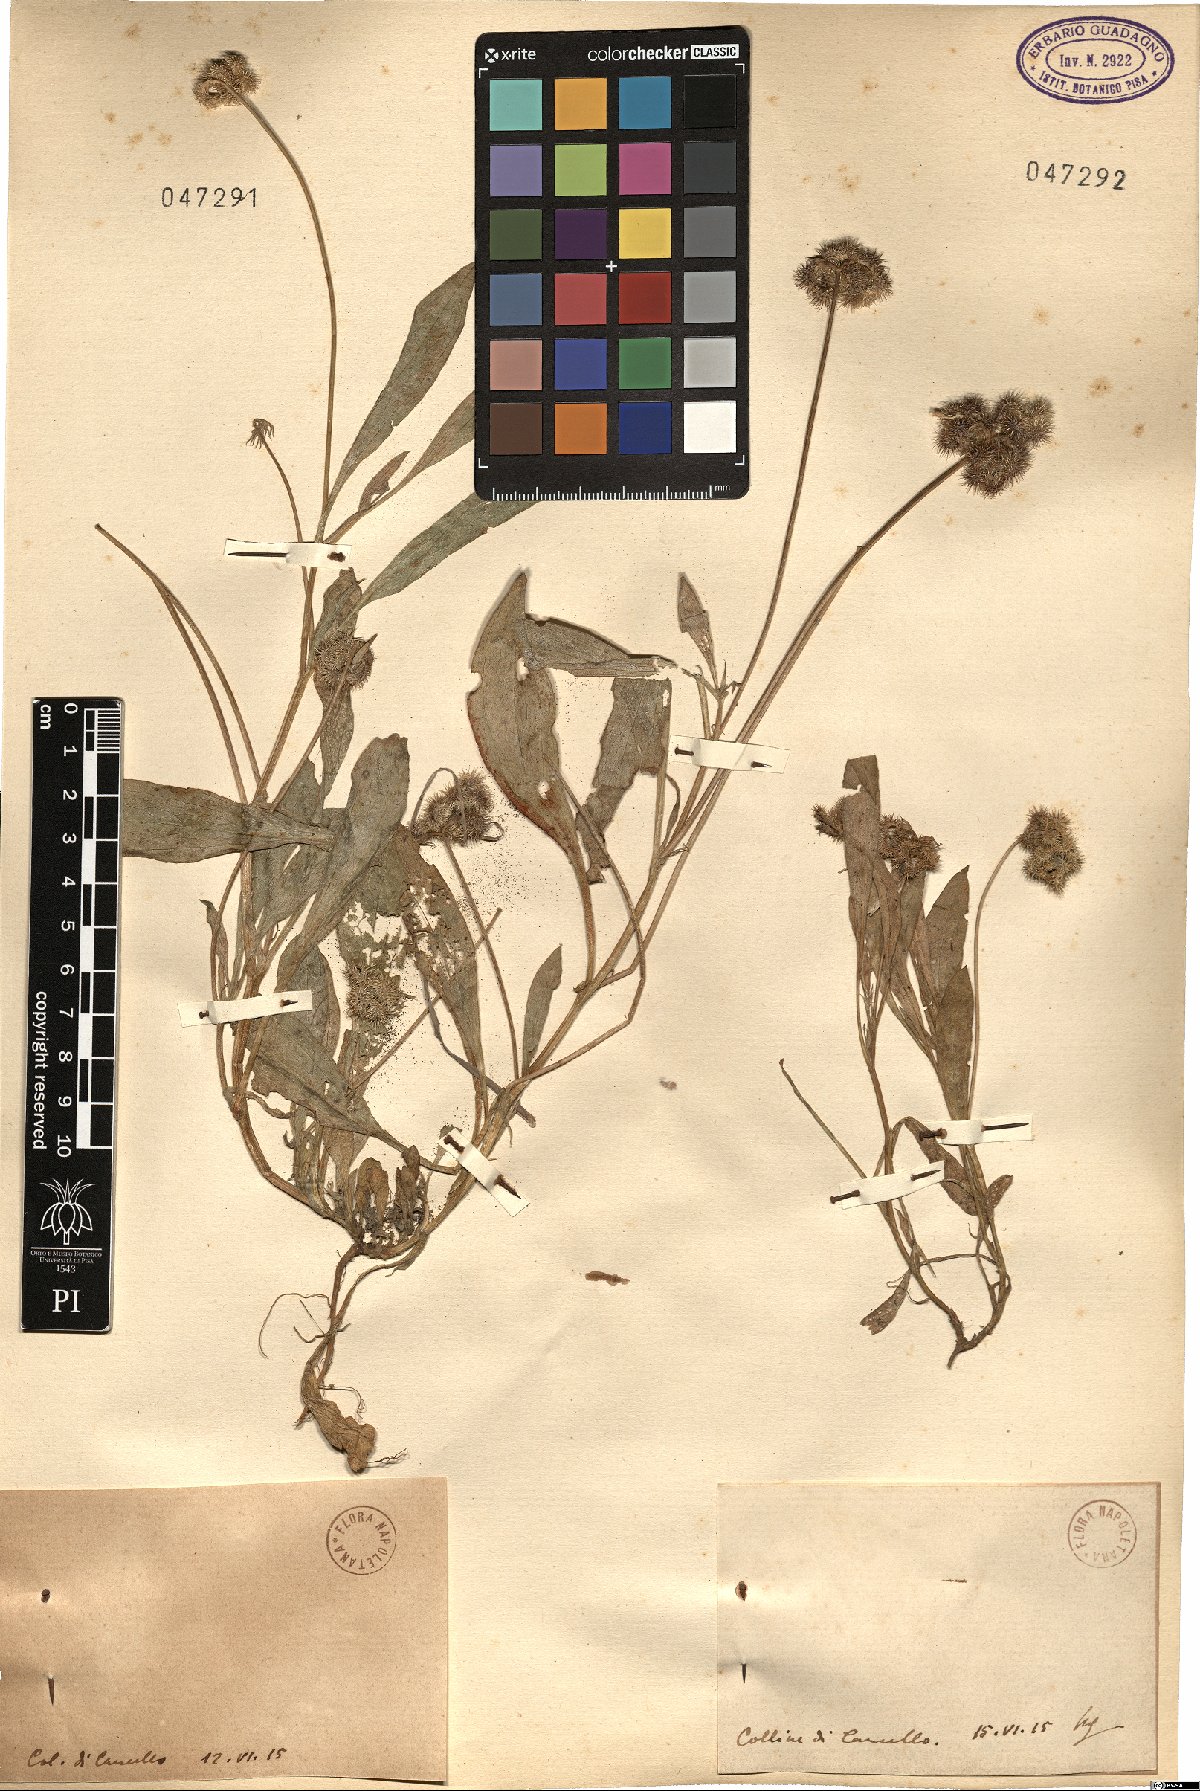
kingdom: Plantae
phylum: Tracheophyta
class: Magnoliopsida
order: Fabales
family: Fabaceae
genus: Scorpiurus
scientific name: Scorpiurus
